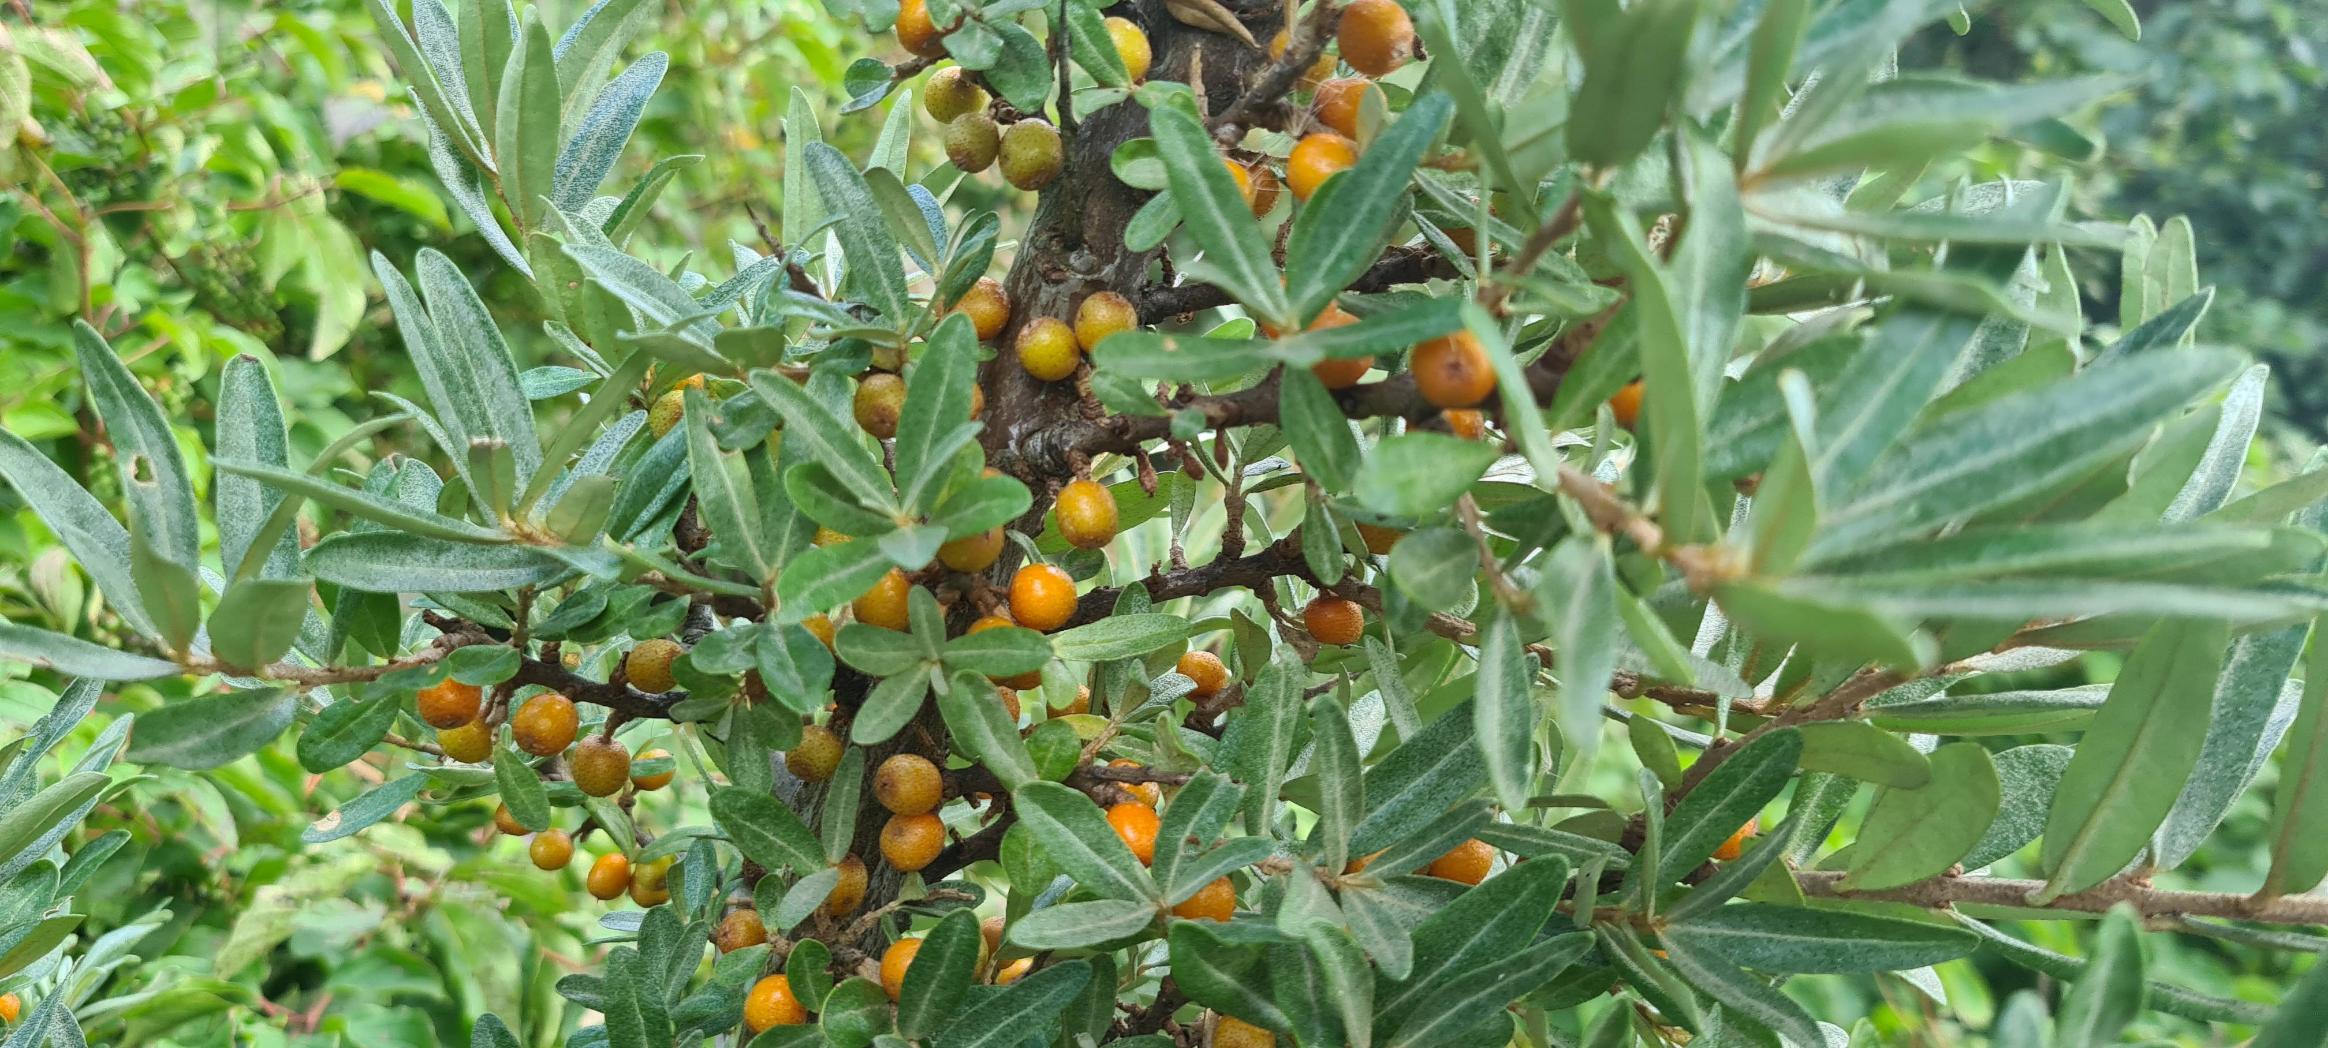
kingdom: Plantae
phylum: Tracheophyta
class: Magnoliopsida
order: Rosales
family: Elaeagnaceae
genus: Hippophae
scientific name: Hippophae rhamnoides
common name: Havtorn
